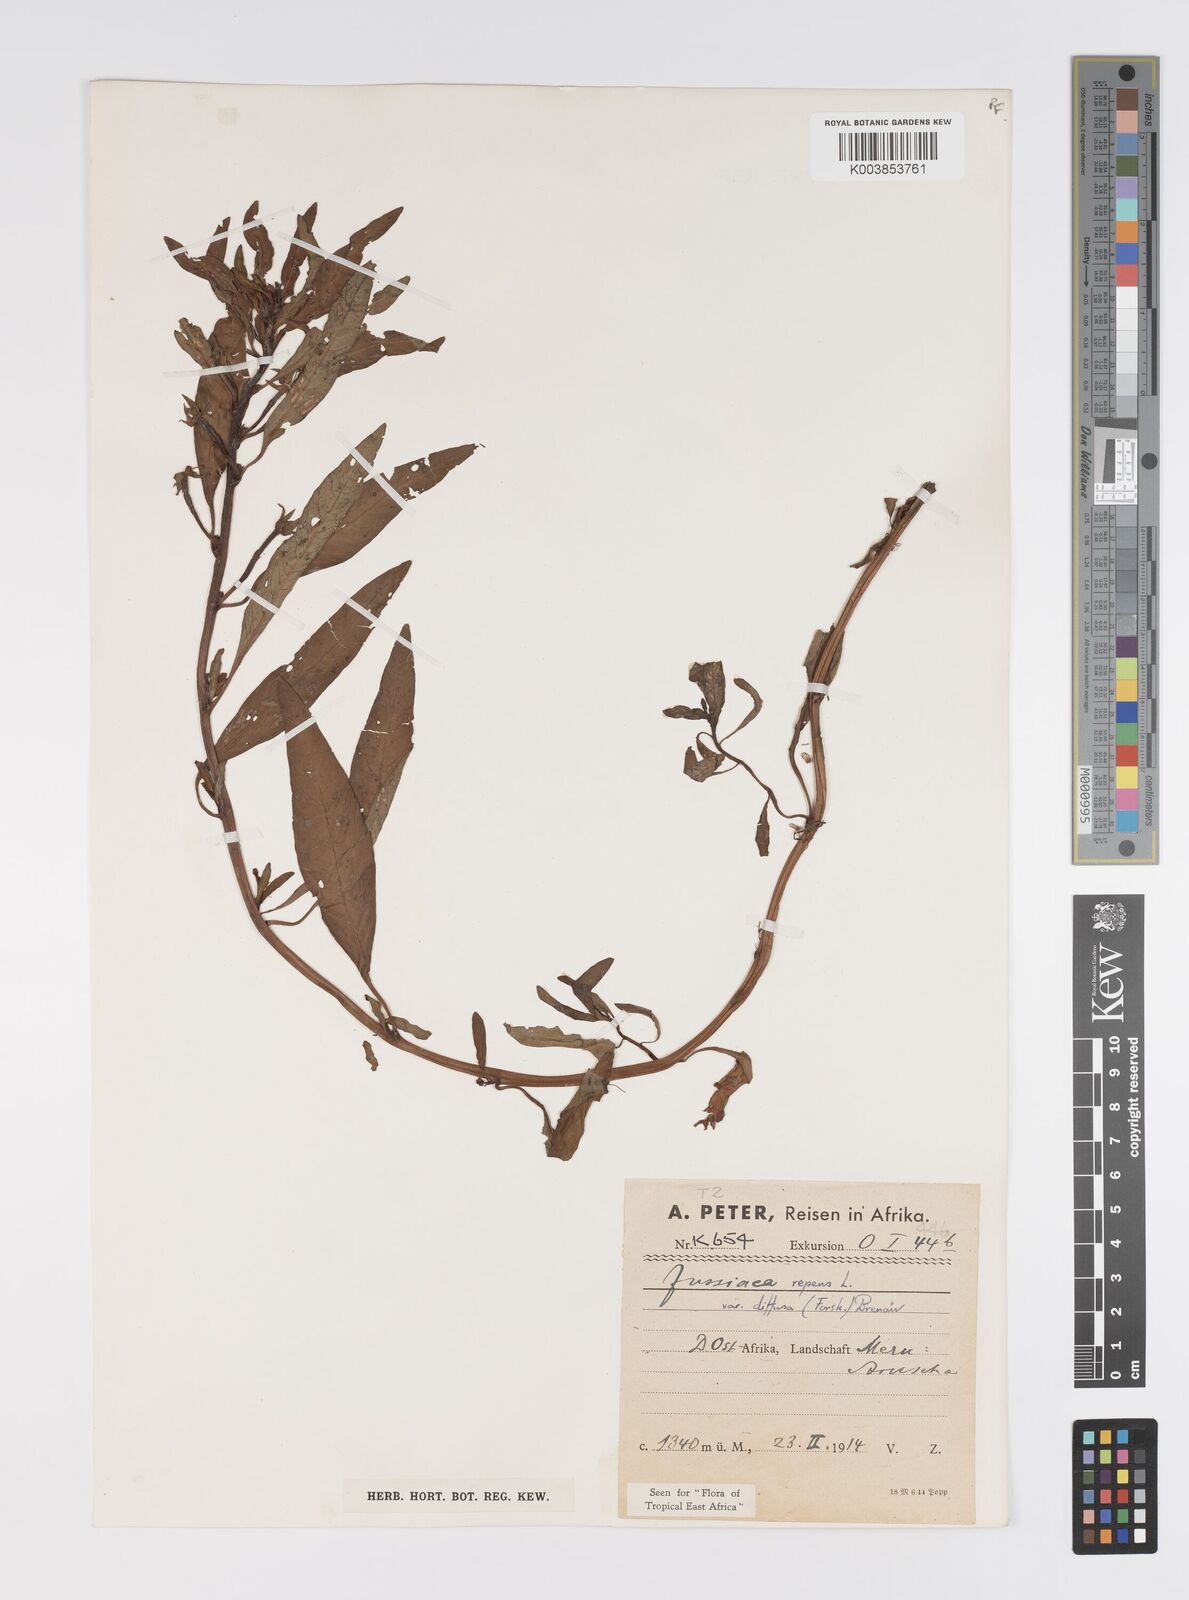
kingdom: Plantae
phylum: Tracheophyta
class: Magnoliopsida
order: Myrtales
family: Onagraceae
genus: Ludwigia
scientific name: Ludwigia repens
